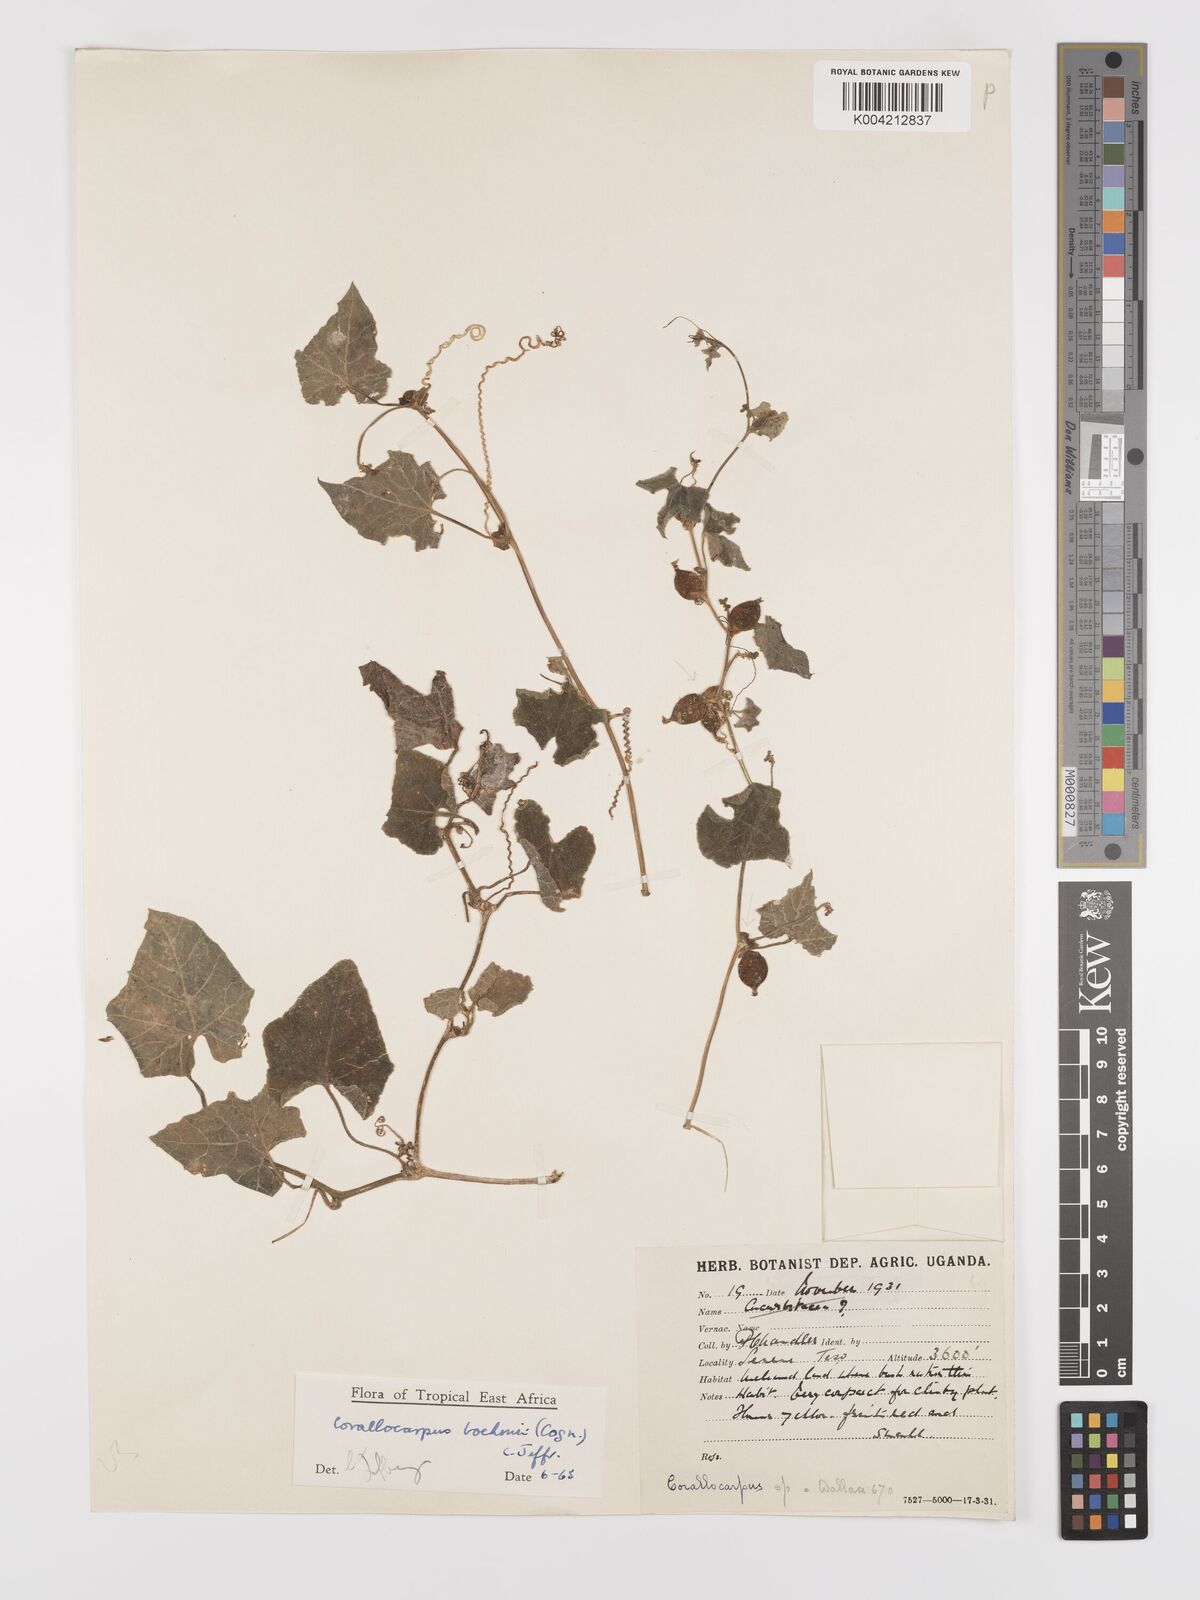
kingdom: Plantae
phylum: Tracheophyta
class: Magnoliopsida
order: Cucurbitales
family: Cucurbitaceae
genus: Corallocarpus
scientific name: Corallocarpus boehmii
